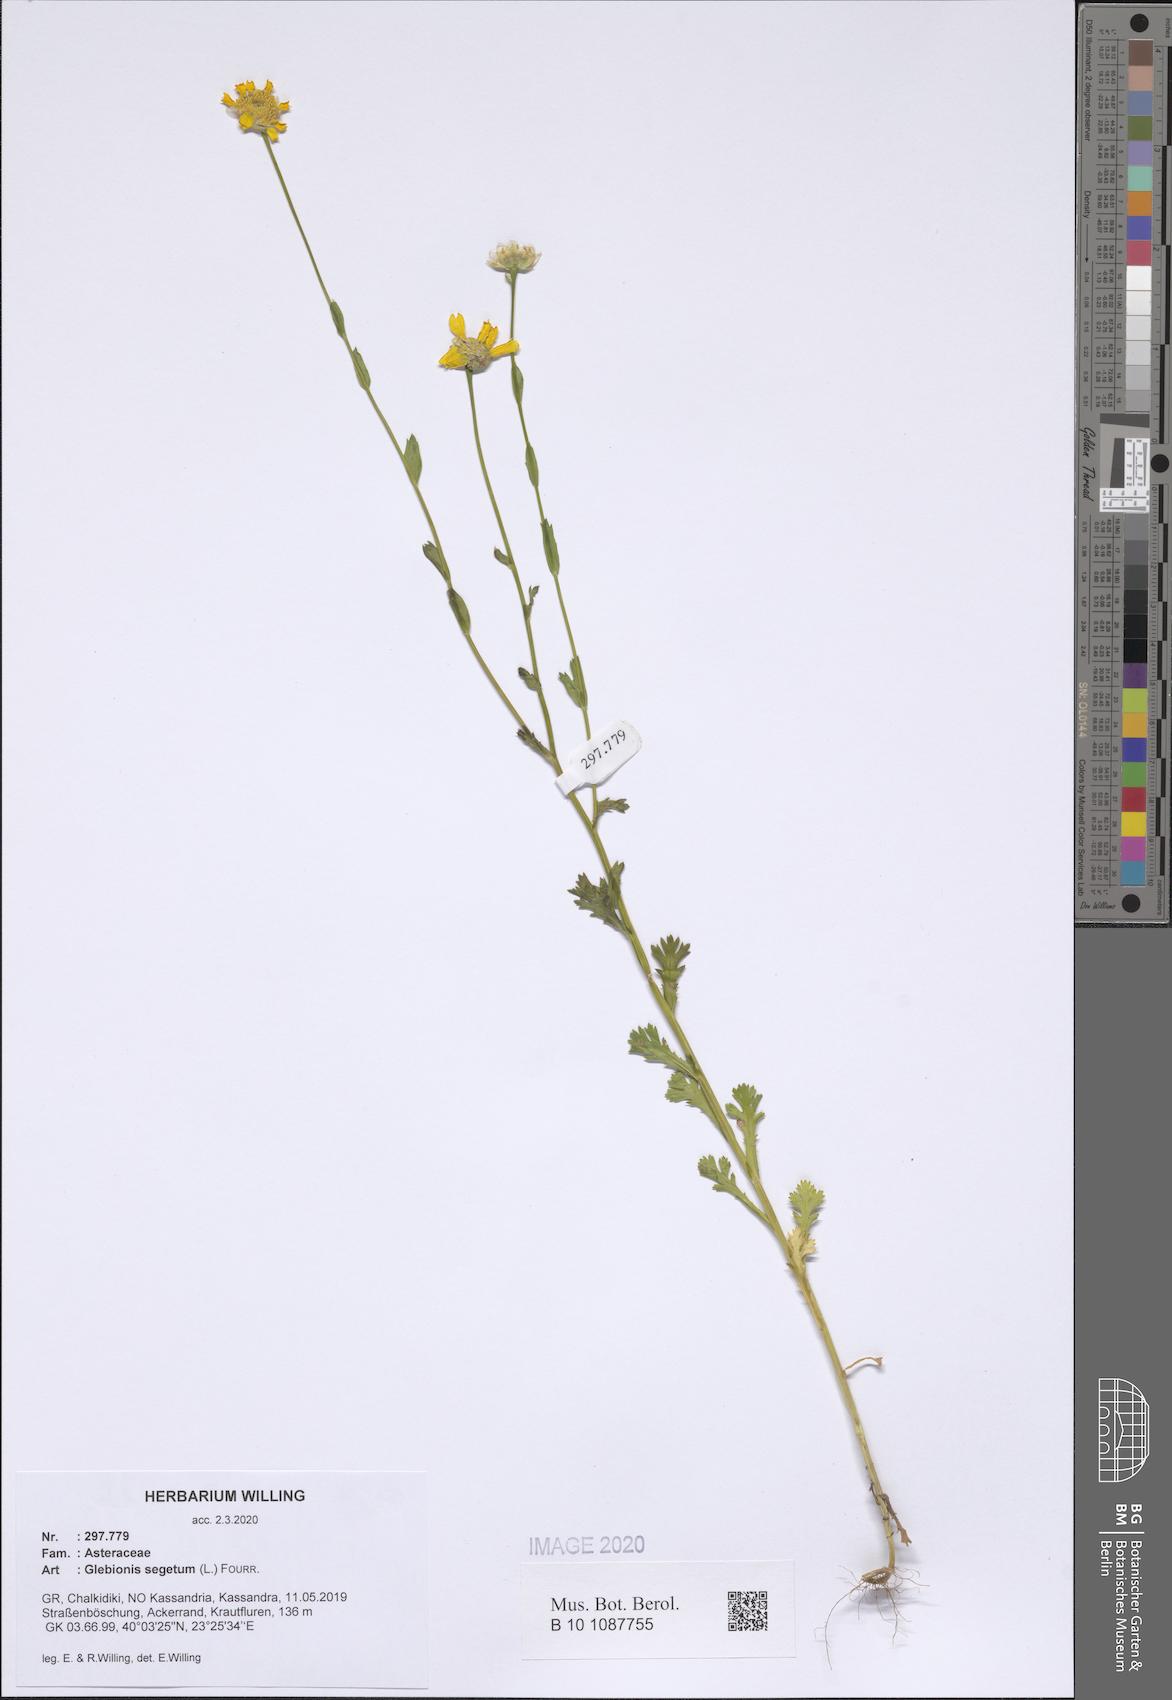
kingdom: Plantae
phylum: Tracheophyta
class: Magnoliopsida
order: Asterales
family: Asteraceae
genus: Glebionis
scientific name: Glebionis segetum
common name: Corndaisy
